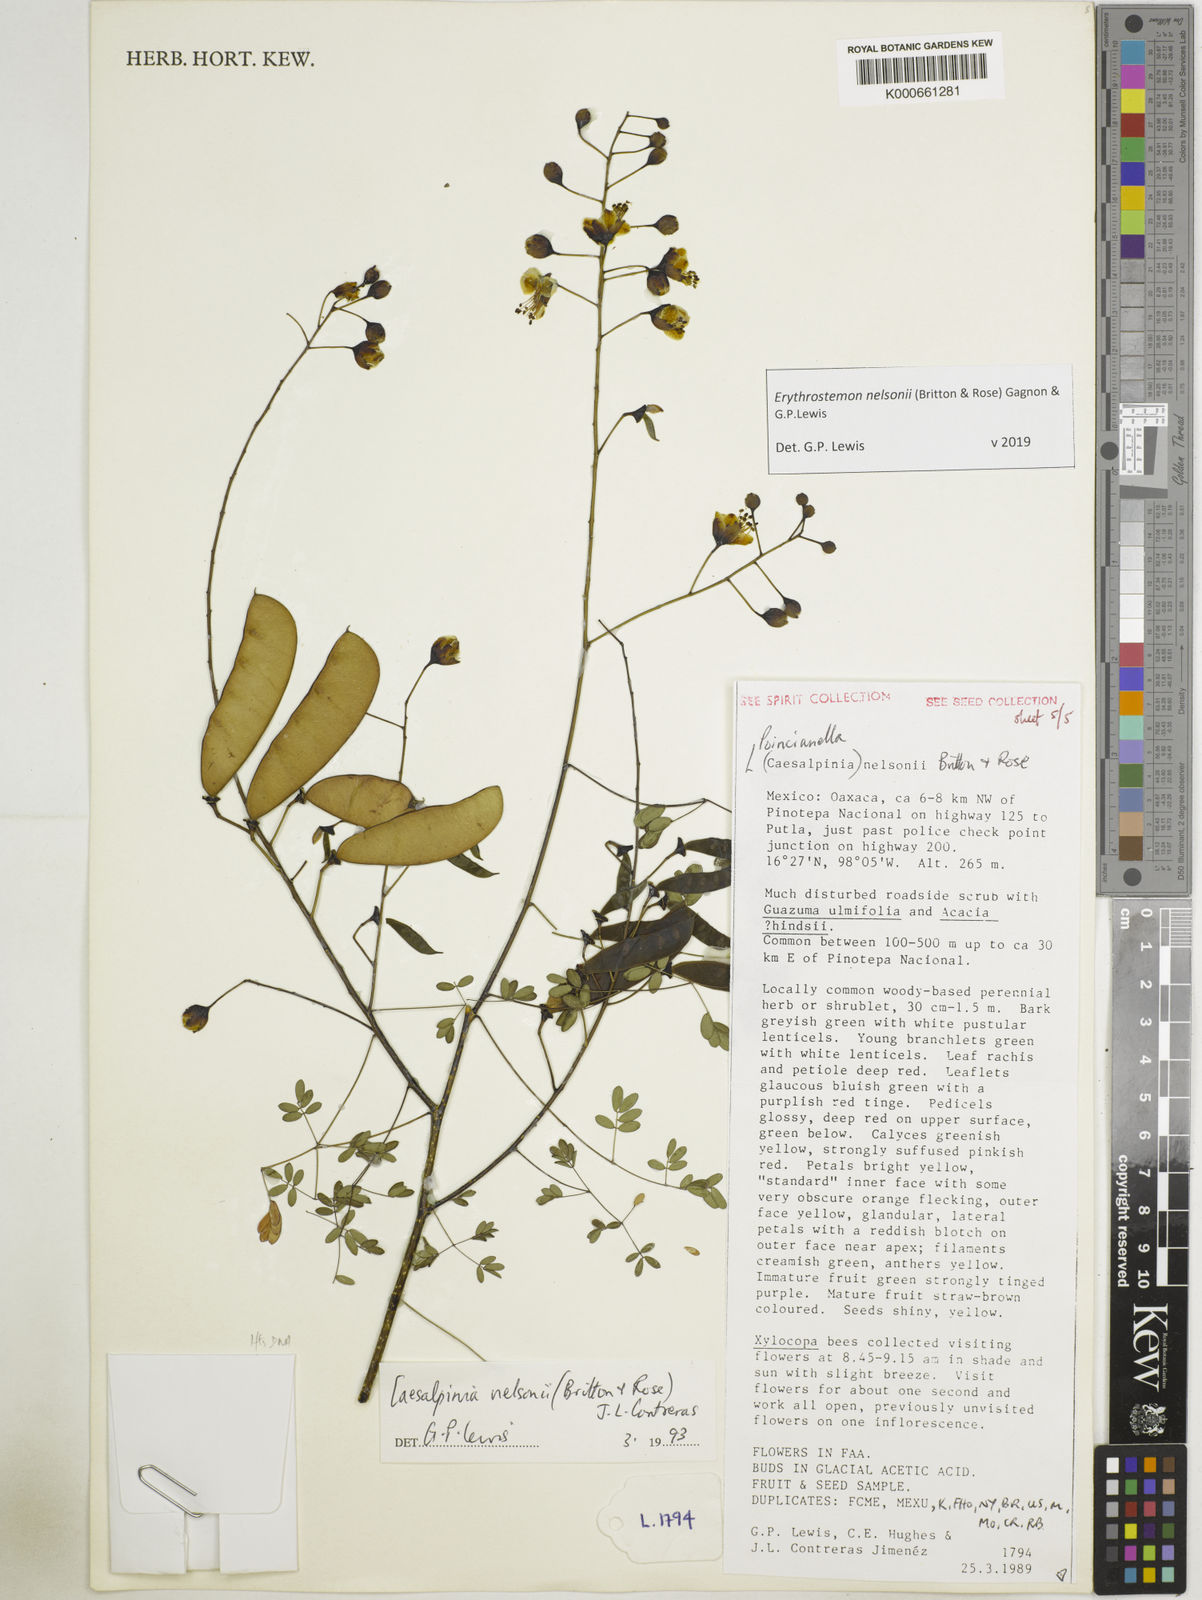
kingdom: Plantae
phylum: Tracheophyta
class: Magnoliopsida
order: Fabales
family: Fabaceae
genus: Erythrostemon
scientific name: Erythrostemon nelsonii
